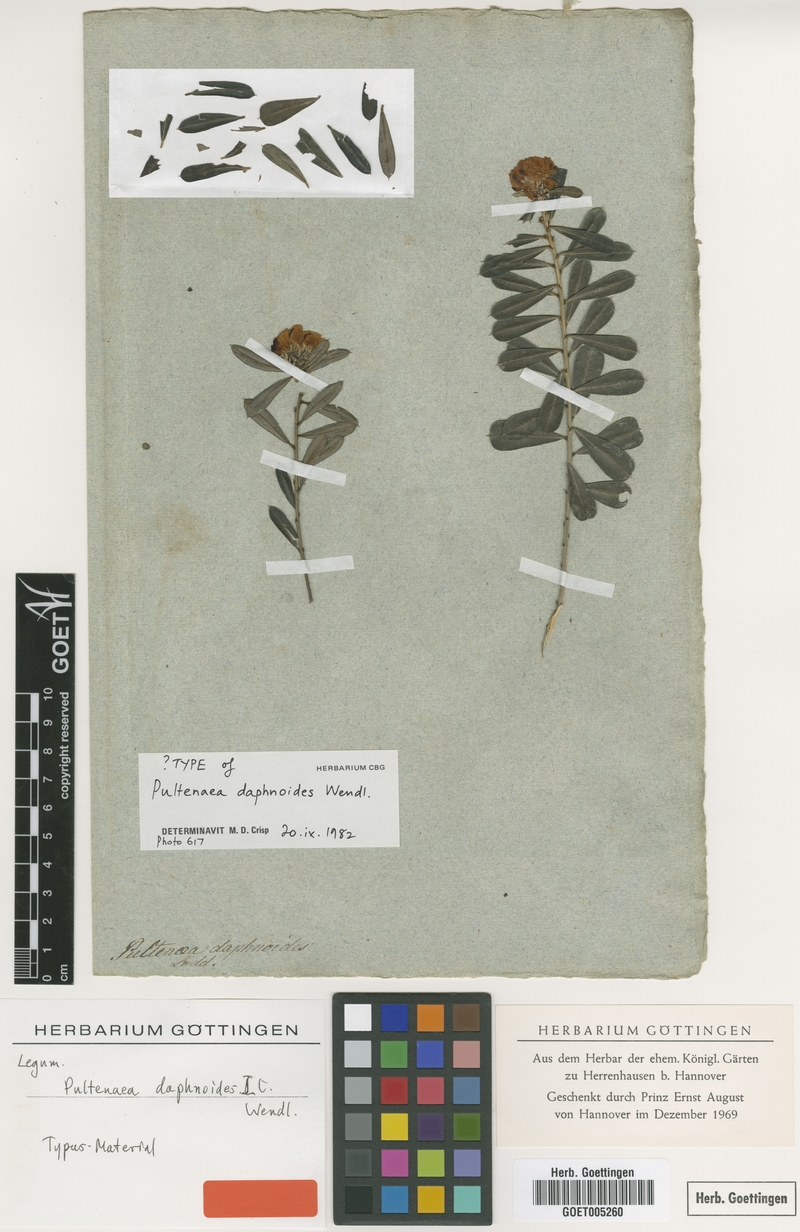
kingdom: Plantae
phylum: Tracheophyta
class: Magnoliopsida
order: Fabales
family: Fabaceae
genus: Pultenaea
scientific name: Pultenaea daphnoides
